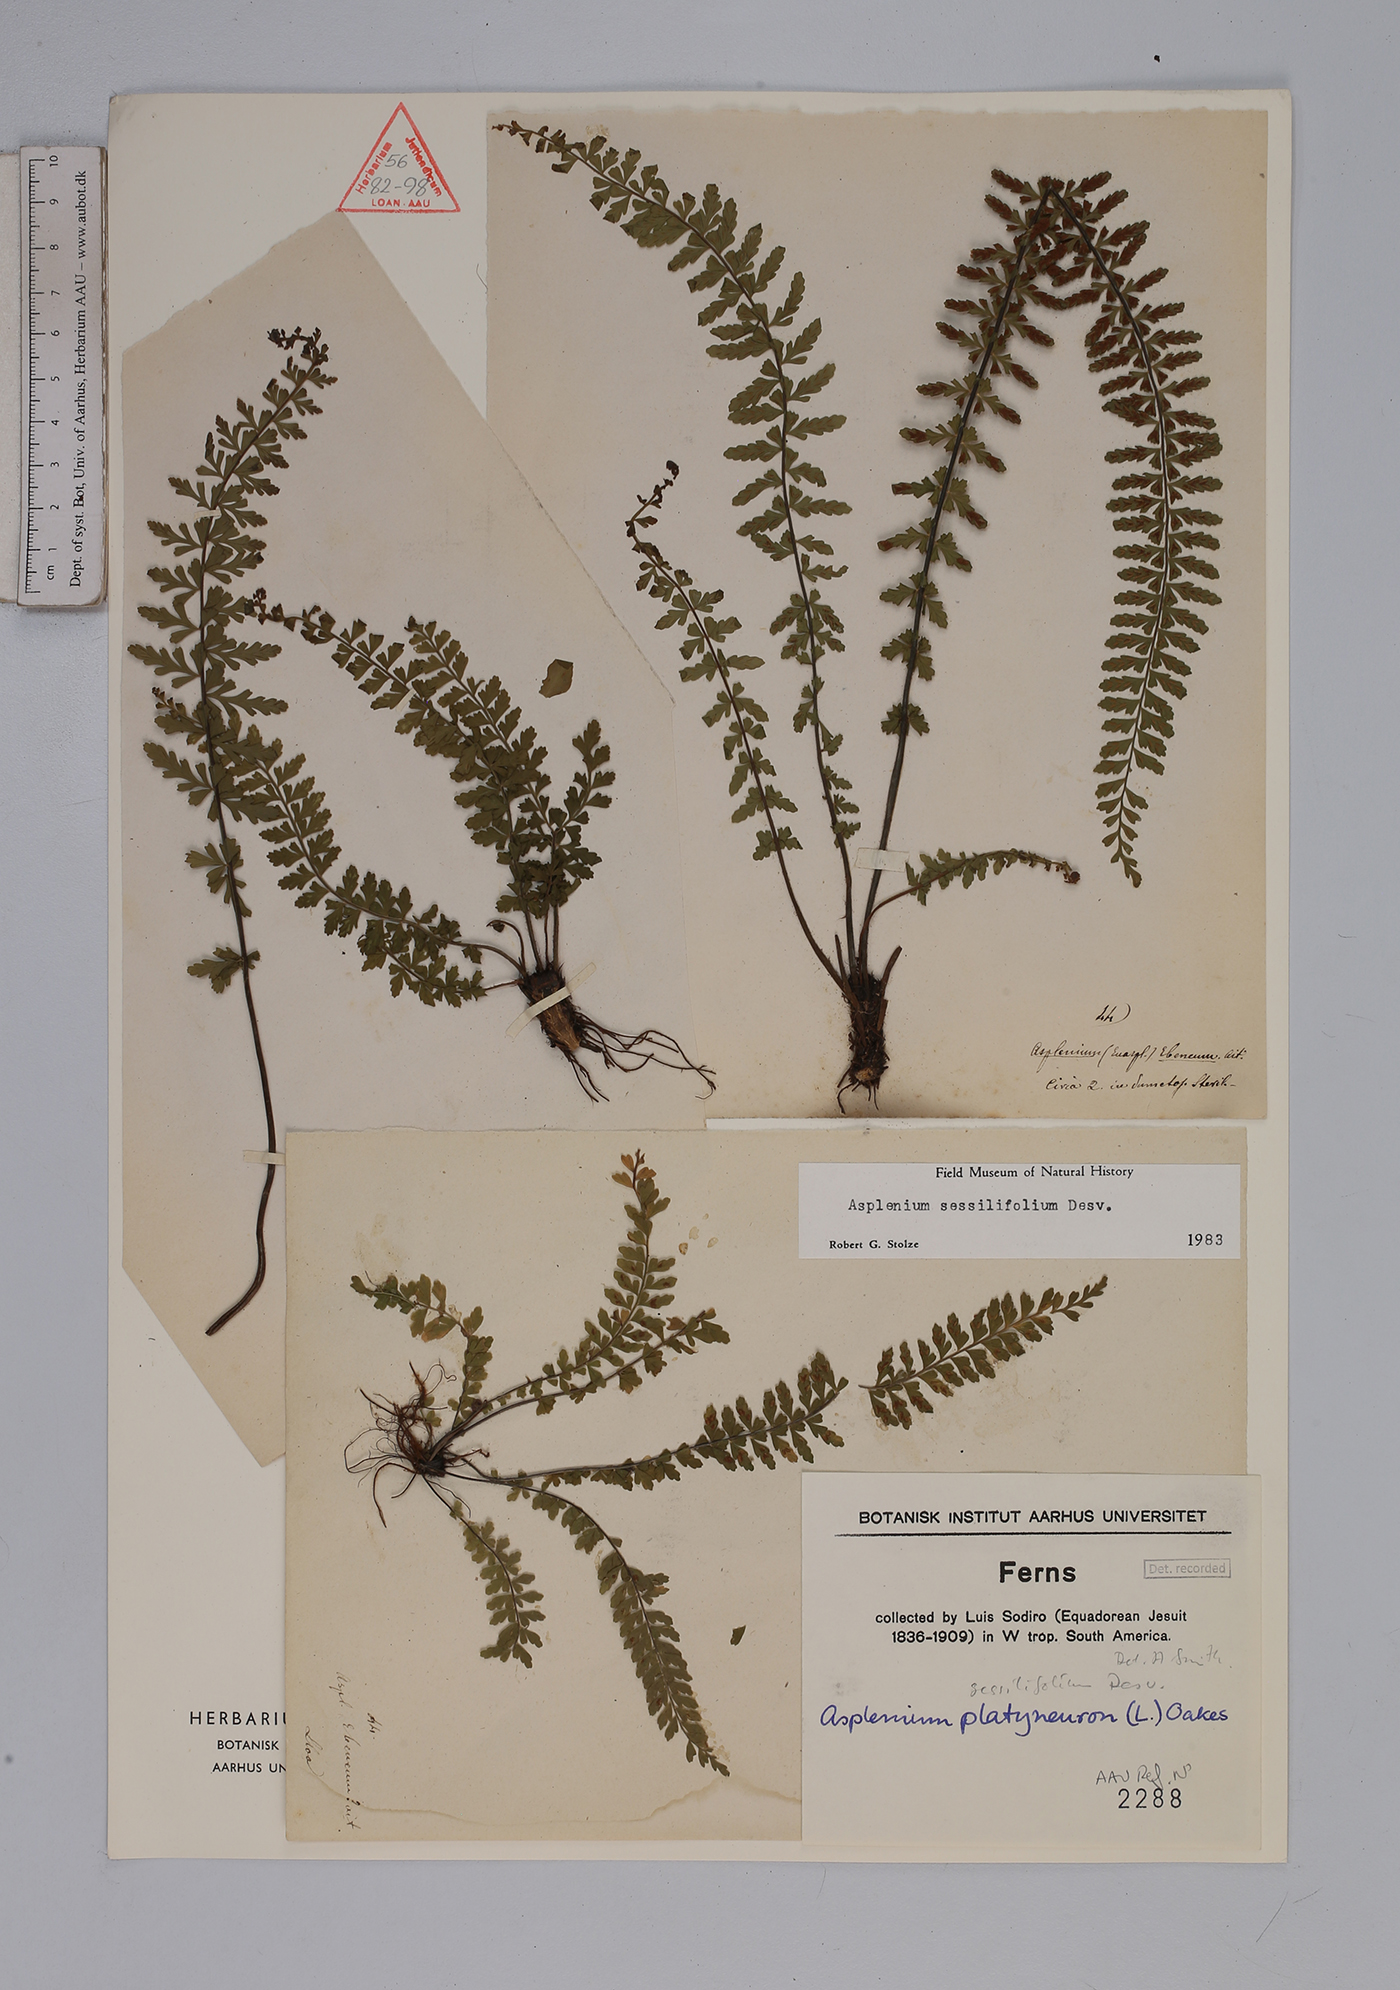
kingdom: Plantae
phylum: Tracheophyta
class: Polypodiopsida
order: Polypodiales
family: Aspleniaceae
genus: Asplenium
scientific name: Asplenium sessilifolium
